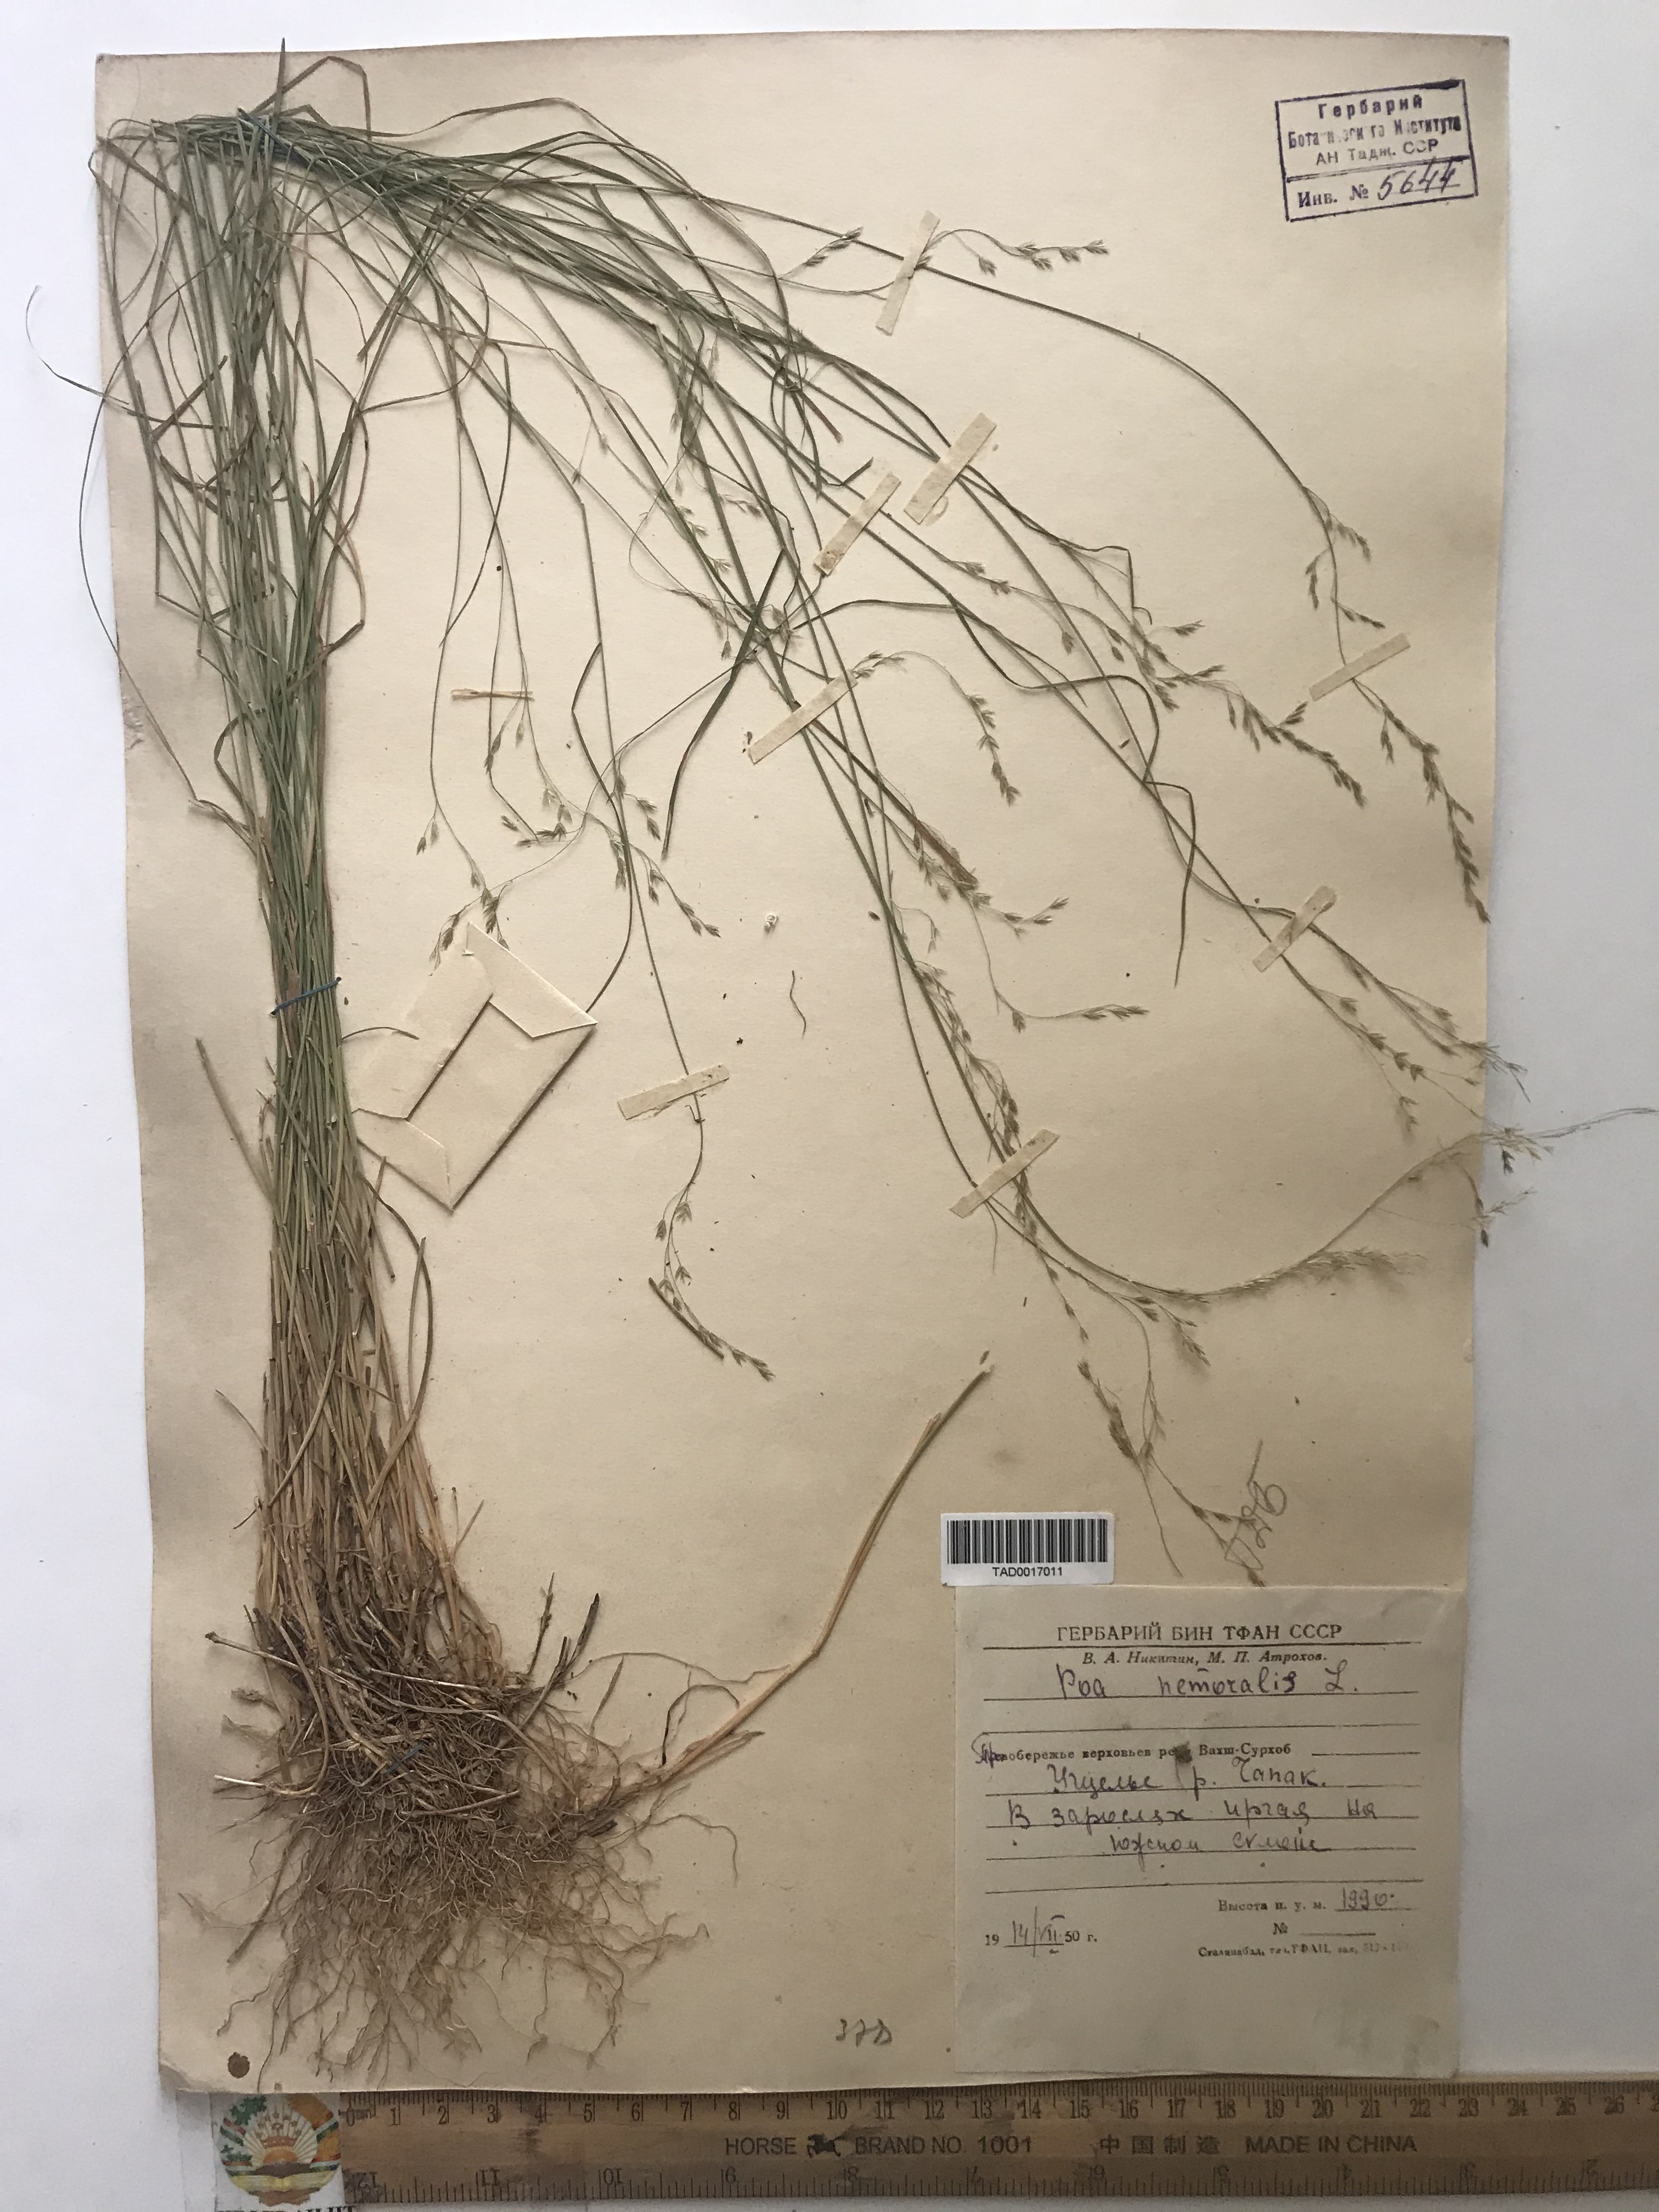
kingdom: Plantae
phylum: Tracheophyta
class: Liliopsida
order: Poales
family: Poaceae
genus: Poa
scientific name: Poa nemoralis
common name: Wood bluegrass
